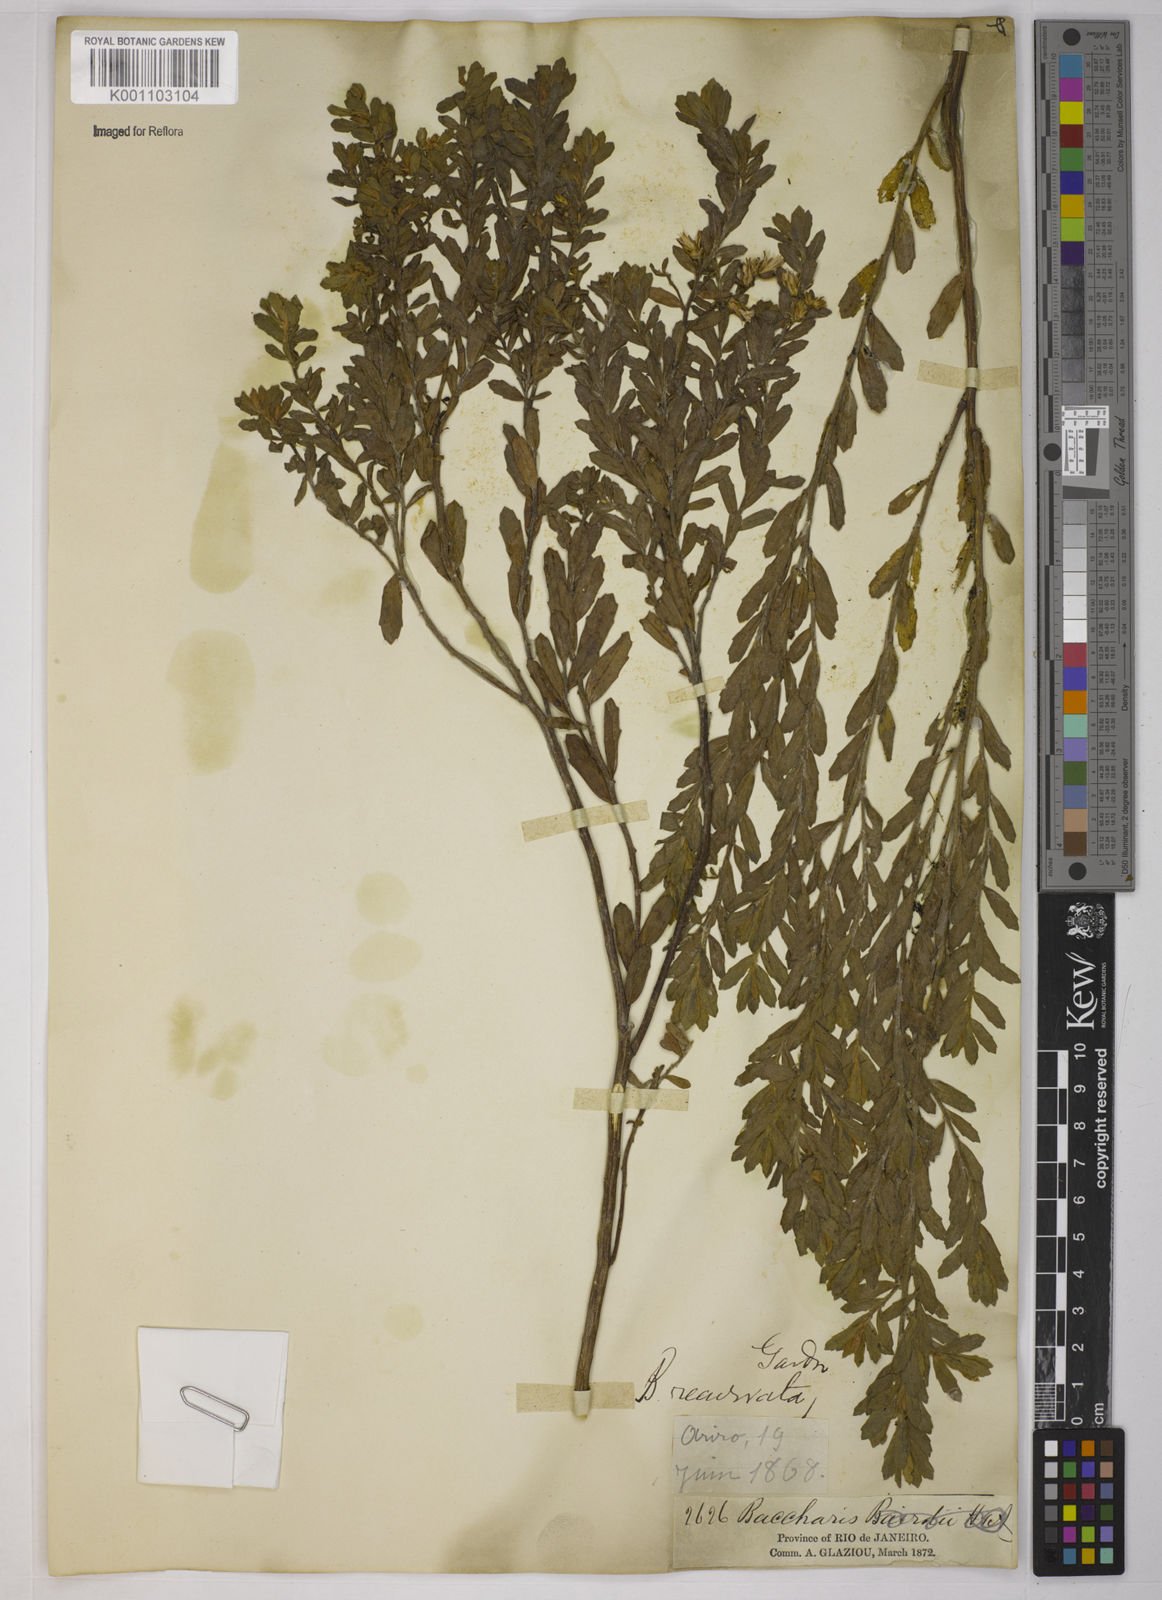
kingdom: Plantae
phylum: Tracheophyta
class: Magnoliopsida
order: Asterales
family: Asteraceae
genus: Baccharis
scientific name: Baccharis caprariifolia
